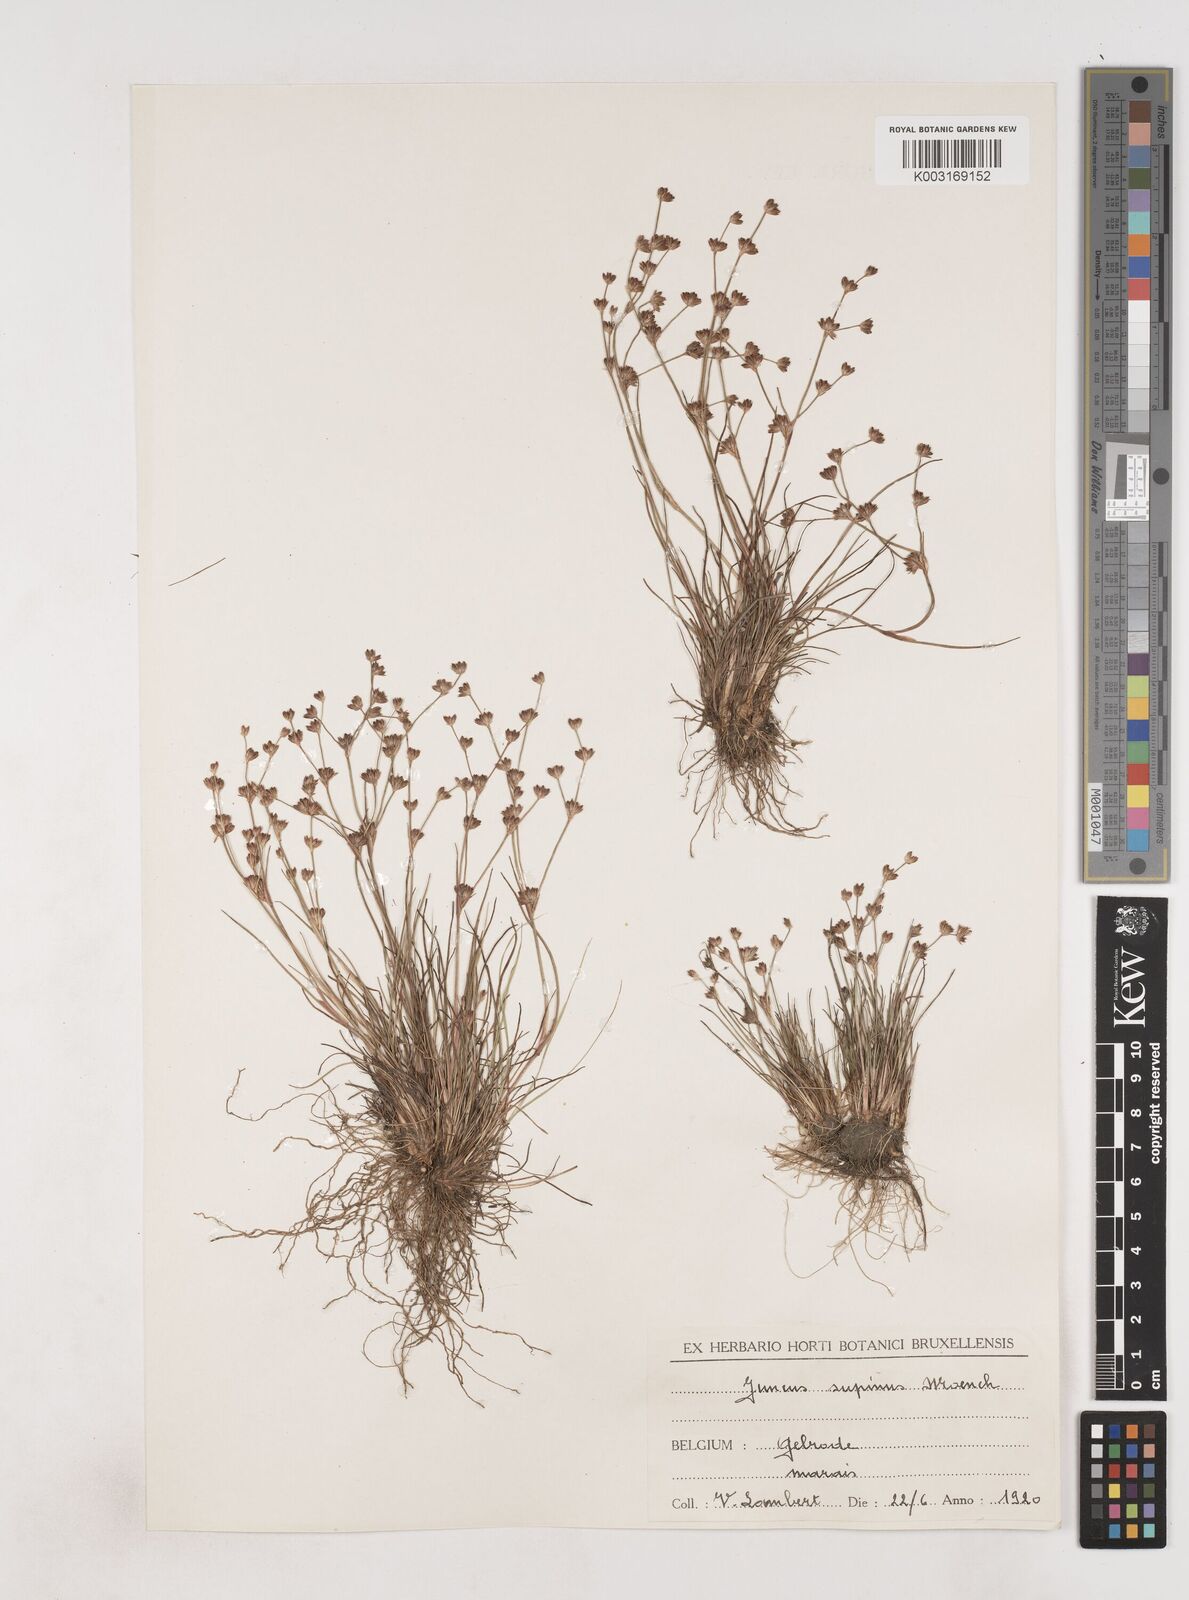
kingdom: Plantae
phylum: Tracheophyta
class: Liliopsida
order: Poales
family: Juncaceae
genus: Juncus
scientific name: Juncus bulbosus
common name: Bulbous rush
